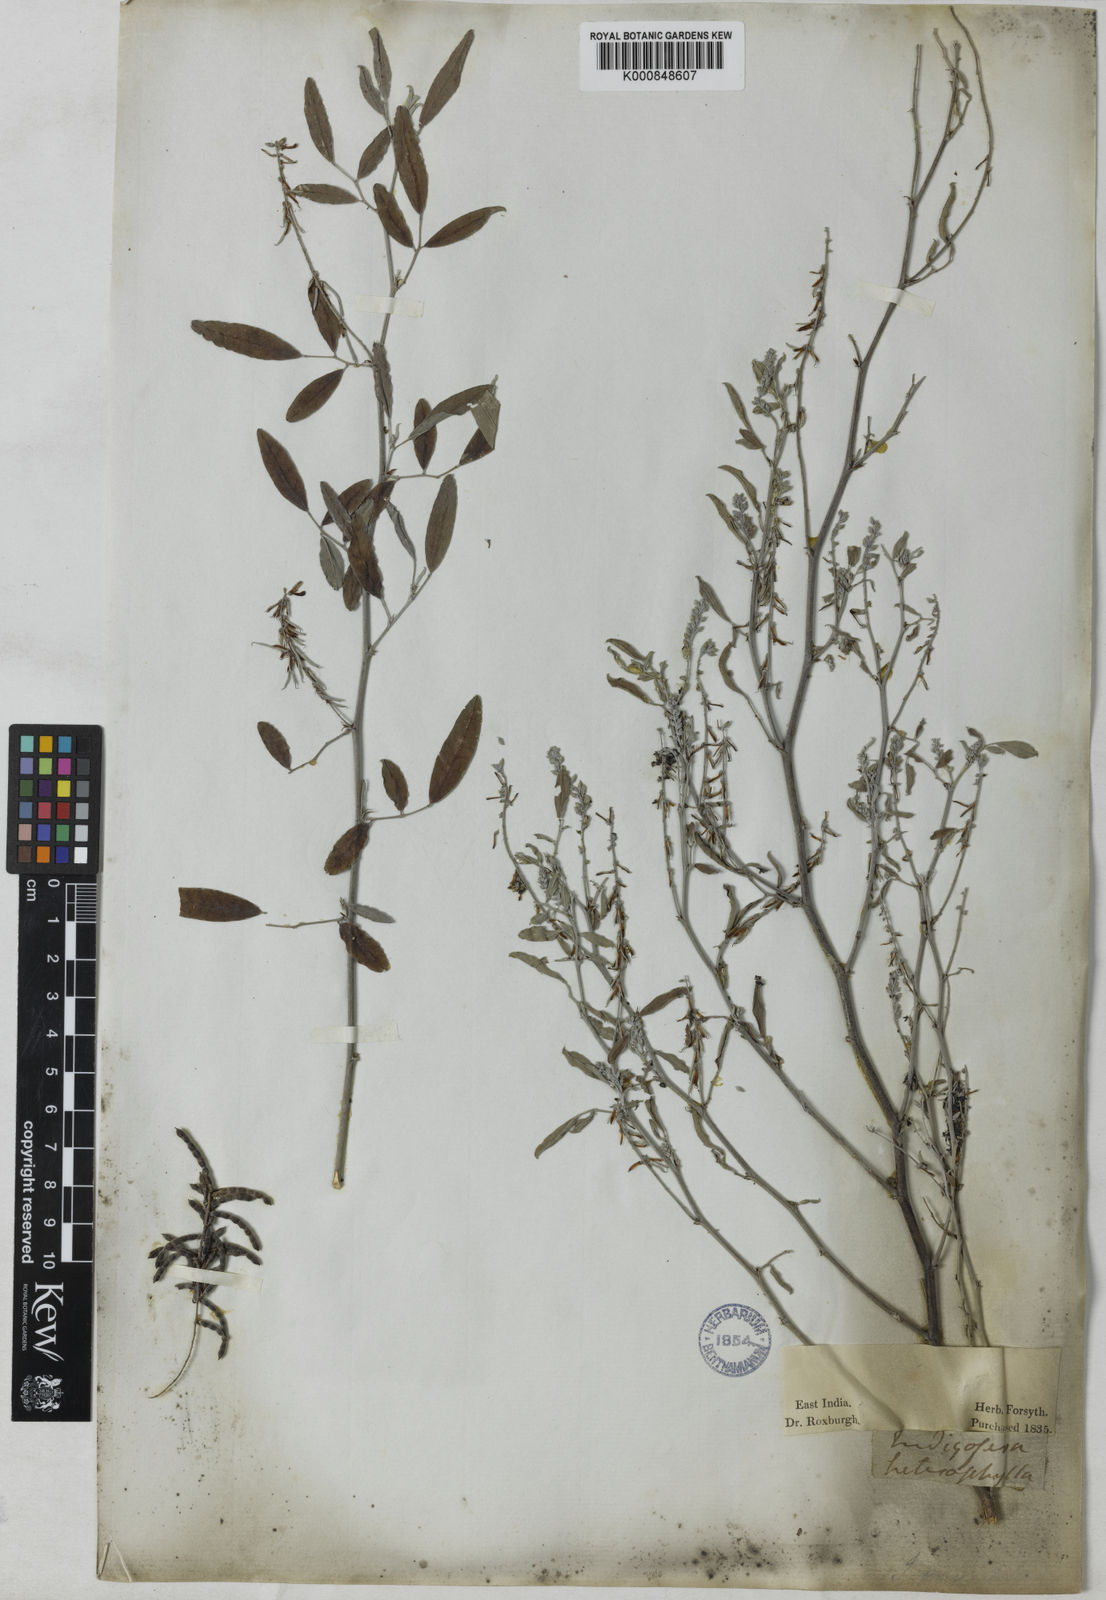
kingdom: Plantae
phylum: Tracheophyta
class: Magnoliopsida
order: Fabales
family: Fabaceae
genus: Indigofera
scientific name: Indigofera oblongifolia
